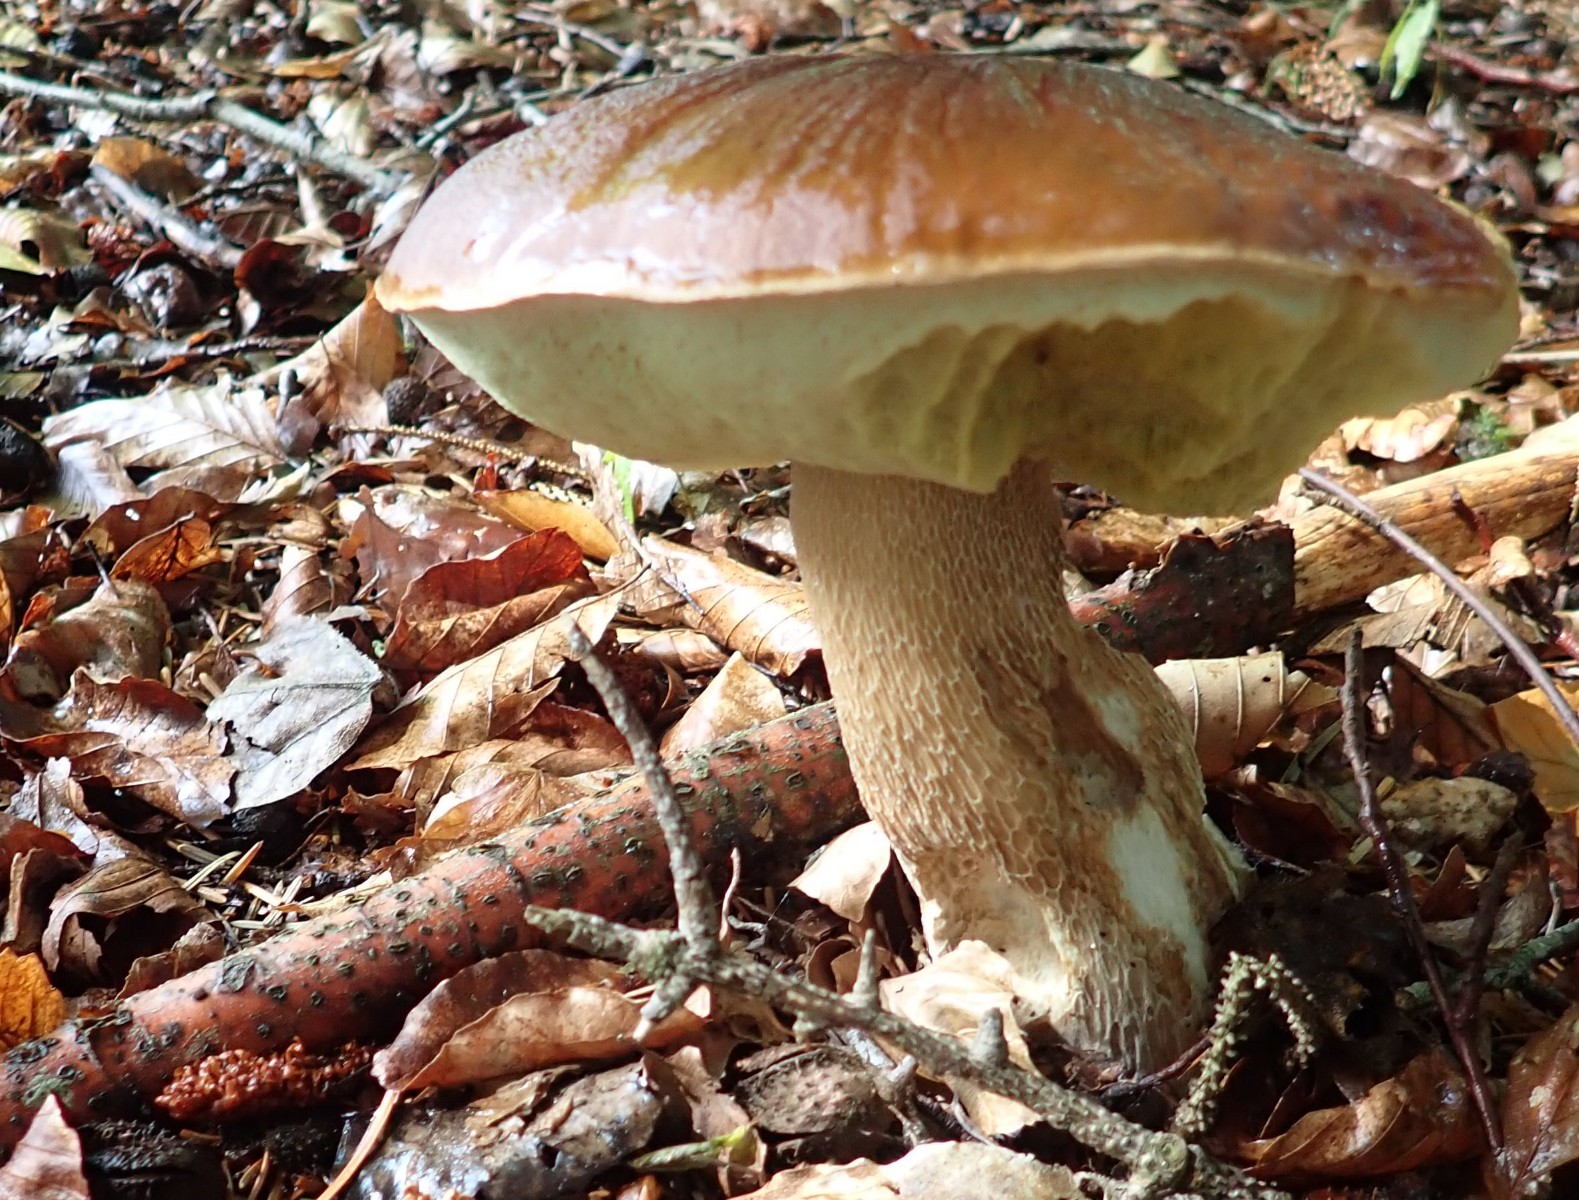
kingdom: Fungi
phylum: Basidiomycota
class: Agaricomycetes
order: Boletales
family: Boletaceae
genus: Boletus
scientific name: Boletus edulis
